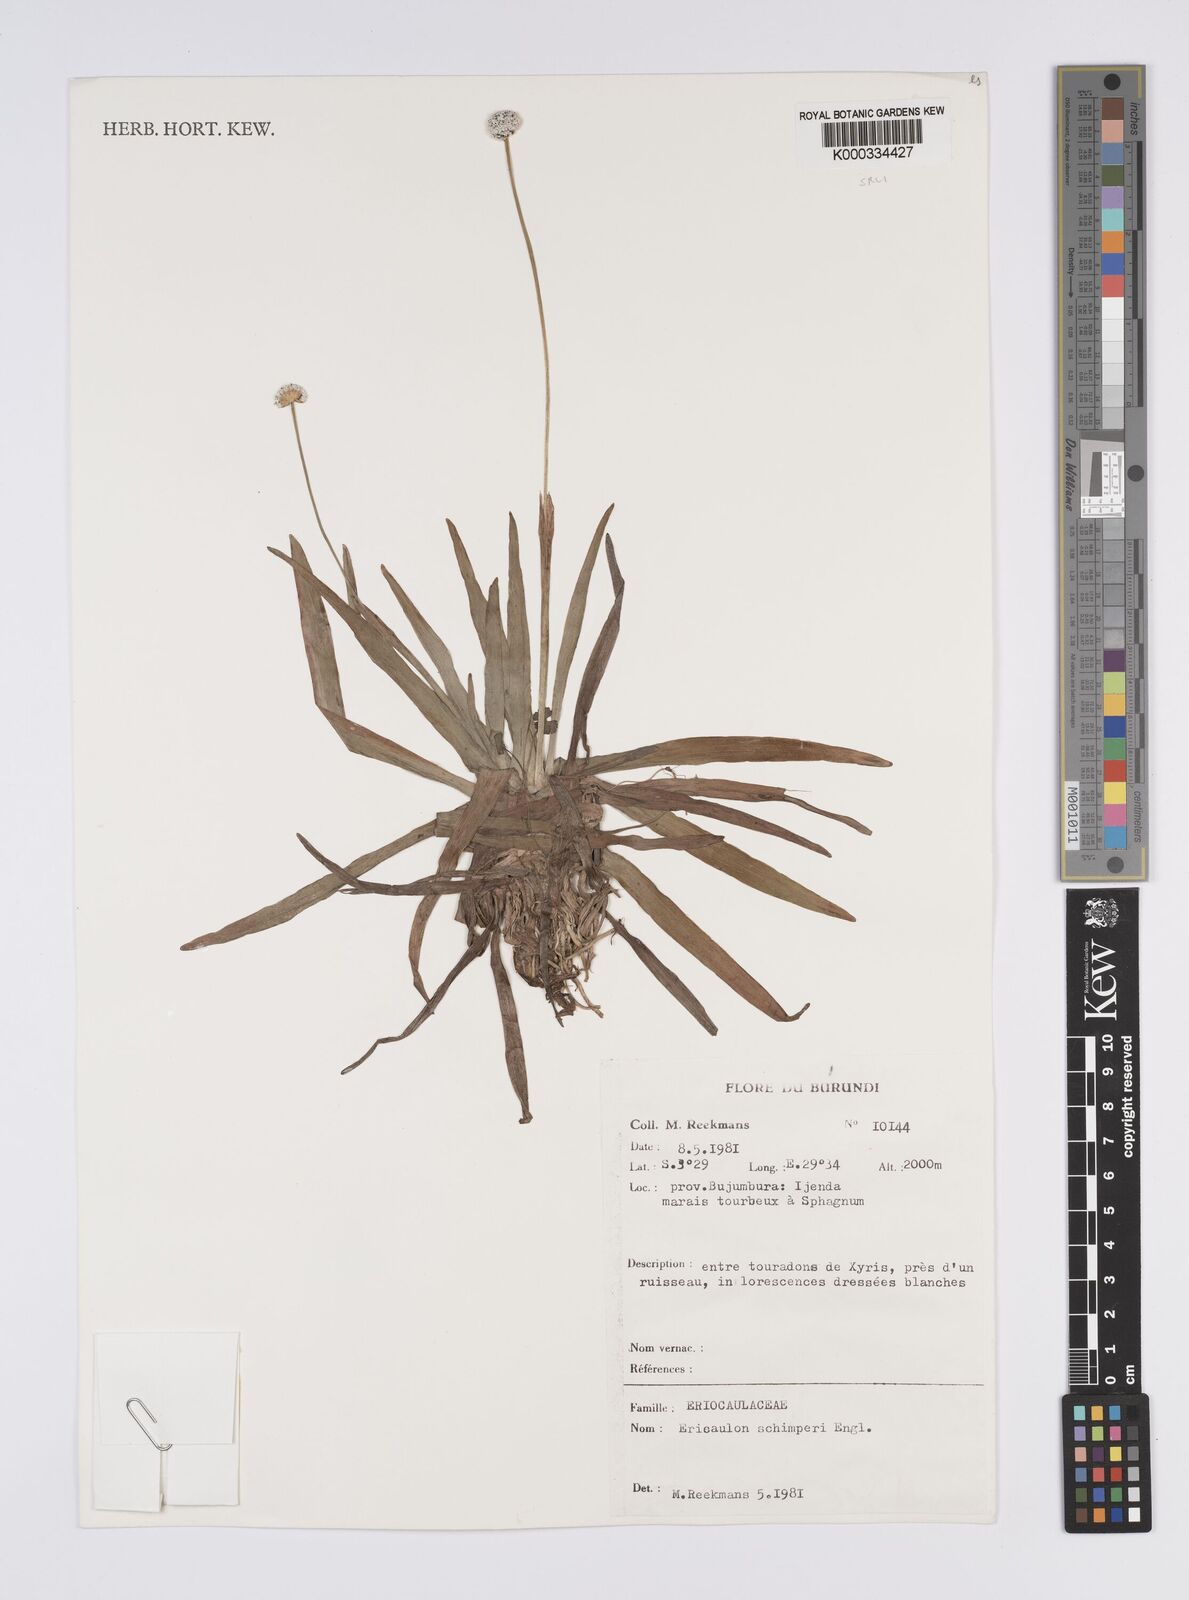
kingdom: Plantae
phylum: Tracheophyta
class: Liliopsida
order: Poales
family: Eriocaulaceae
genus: Eriocaulon
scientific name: Eriocaulon
